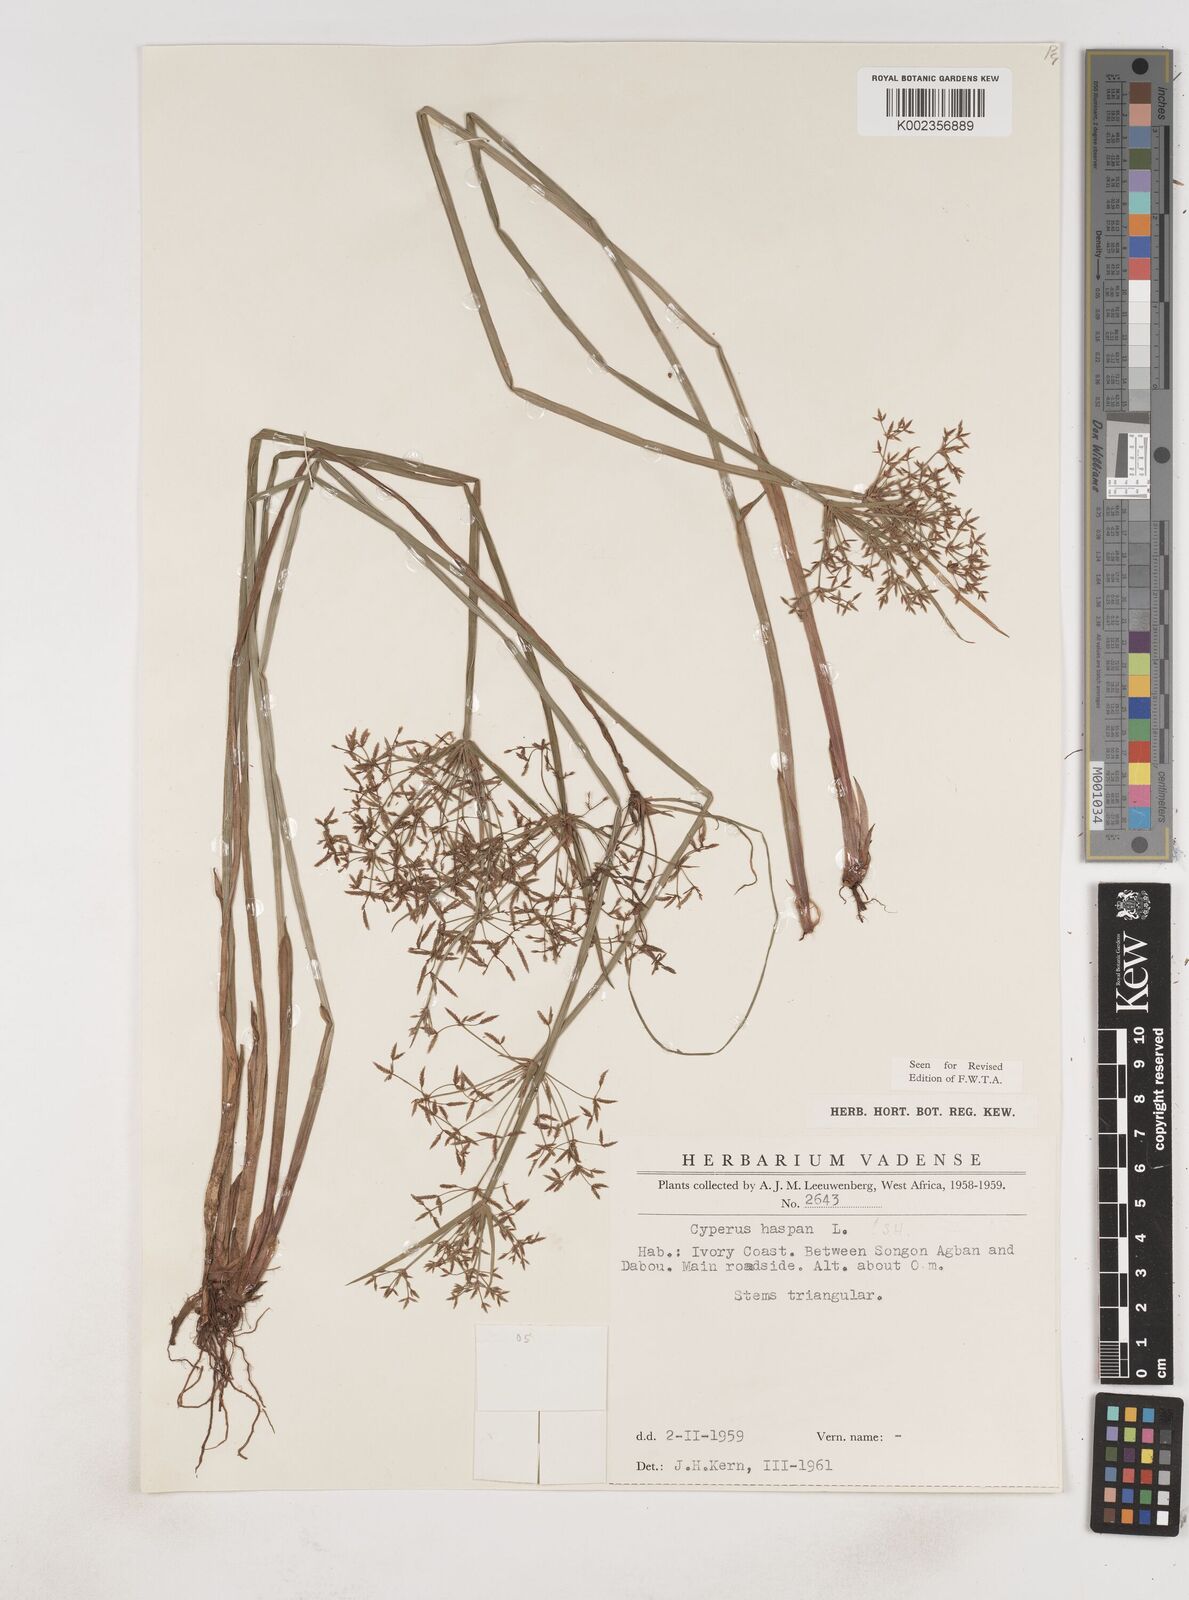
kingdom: Plantae
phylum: Tracheophyta
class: Liliopsida
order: Poales
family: Cyperaceae
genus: Cyperus
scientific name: Cyperus haspan
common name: Haspan flatsedge
